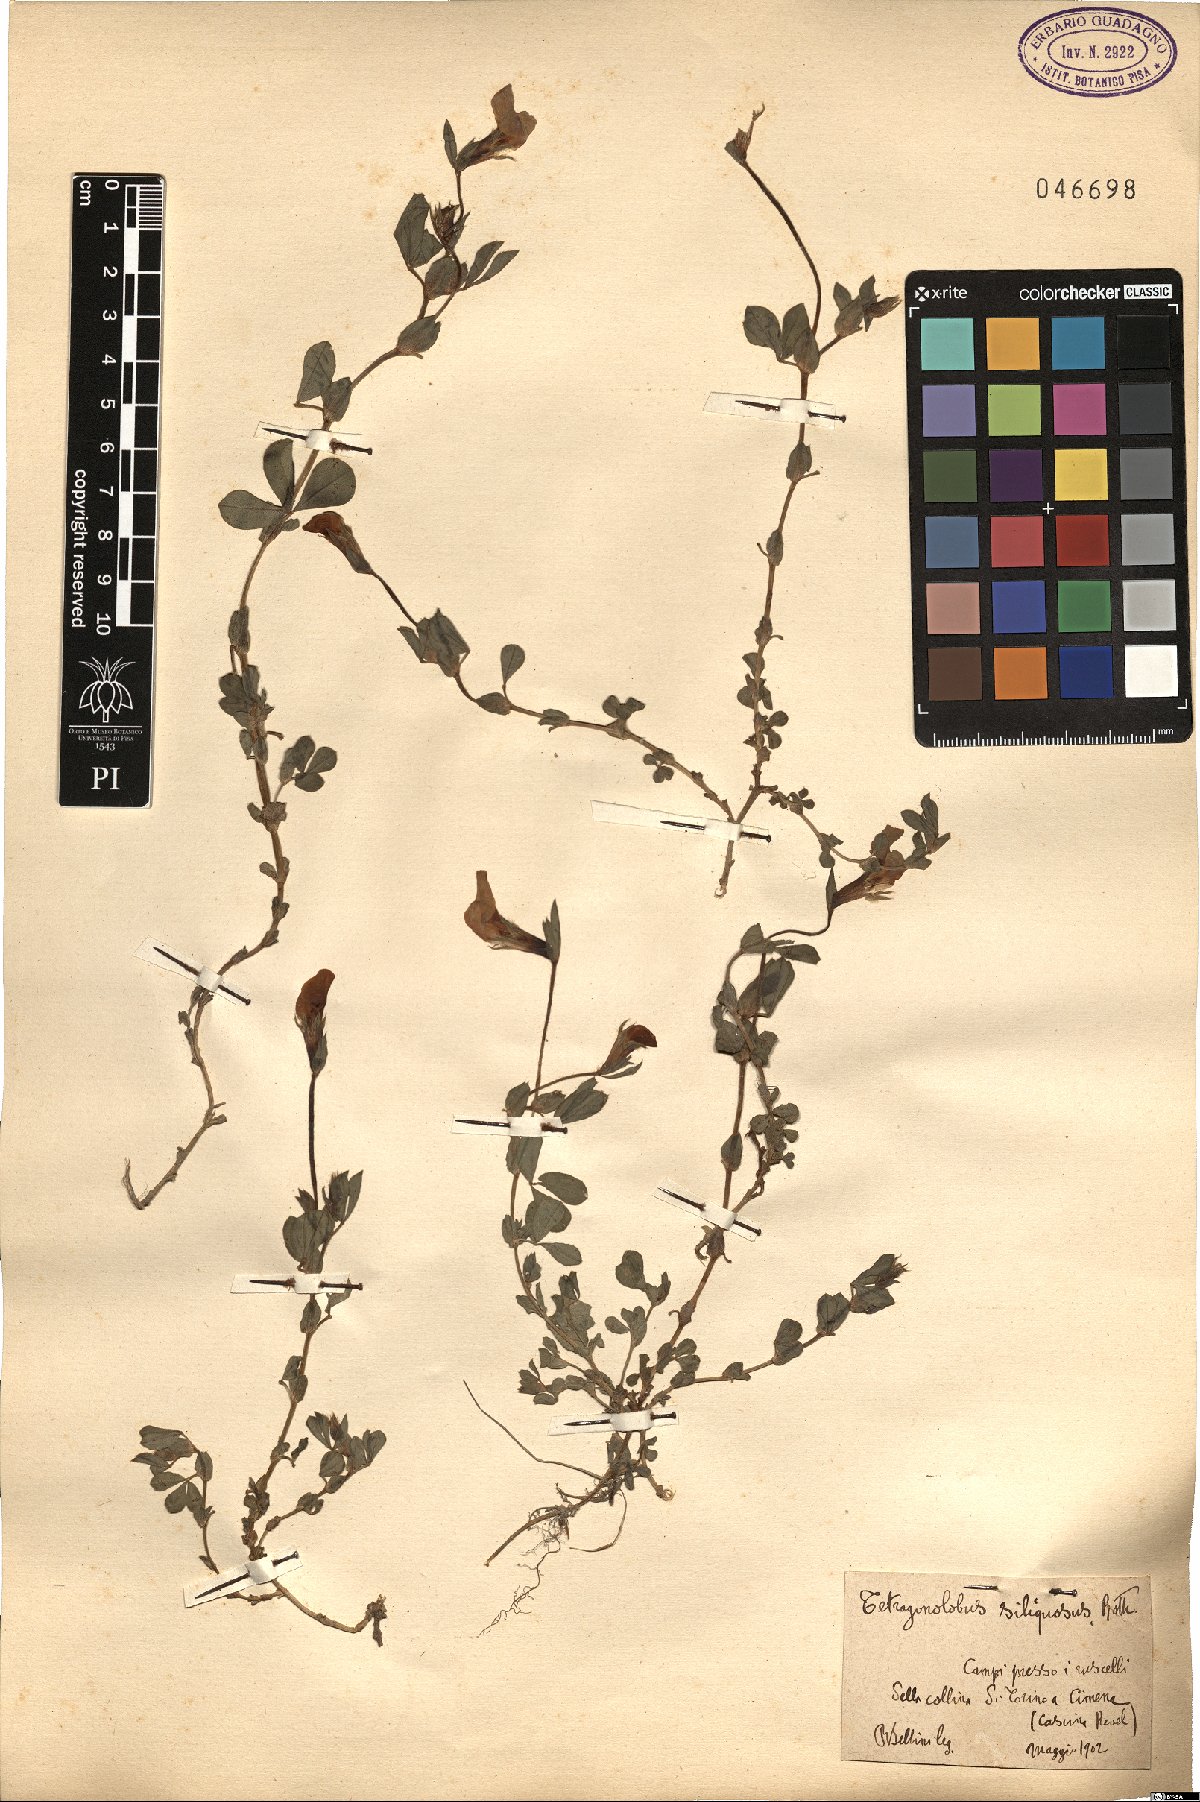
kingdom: Plantae
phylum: Tracheophyta
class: Magnoliopsida
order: Fabales
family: Fabaceae
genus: Lathyrus
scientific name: Lathyrus inconspicuus
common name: Inconspicuous pea
